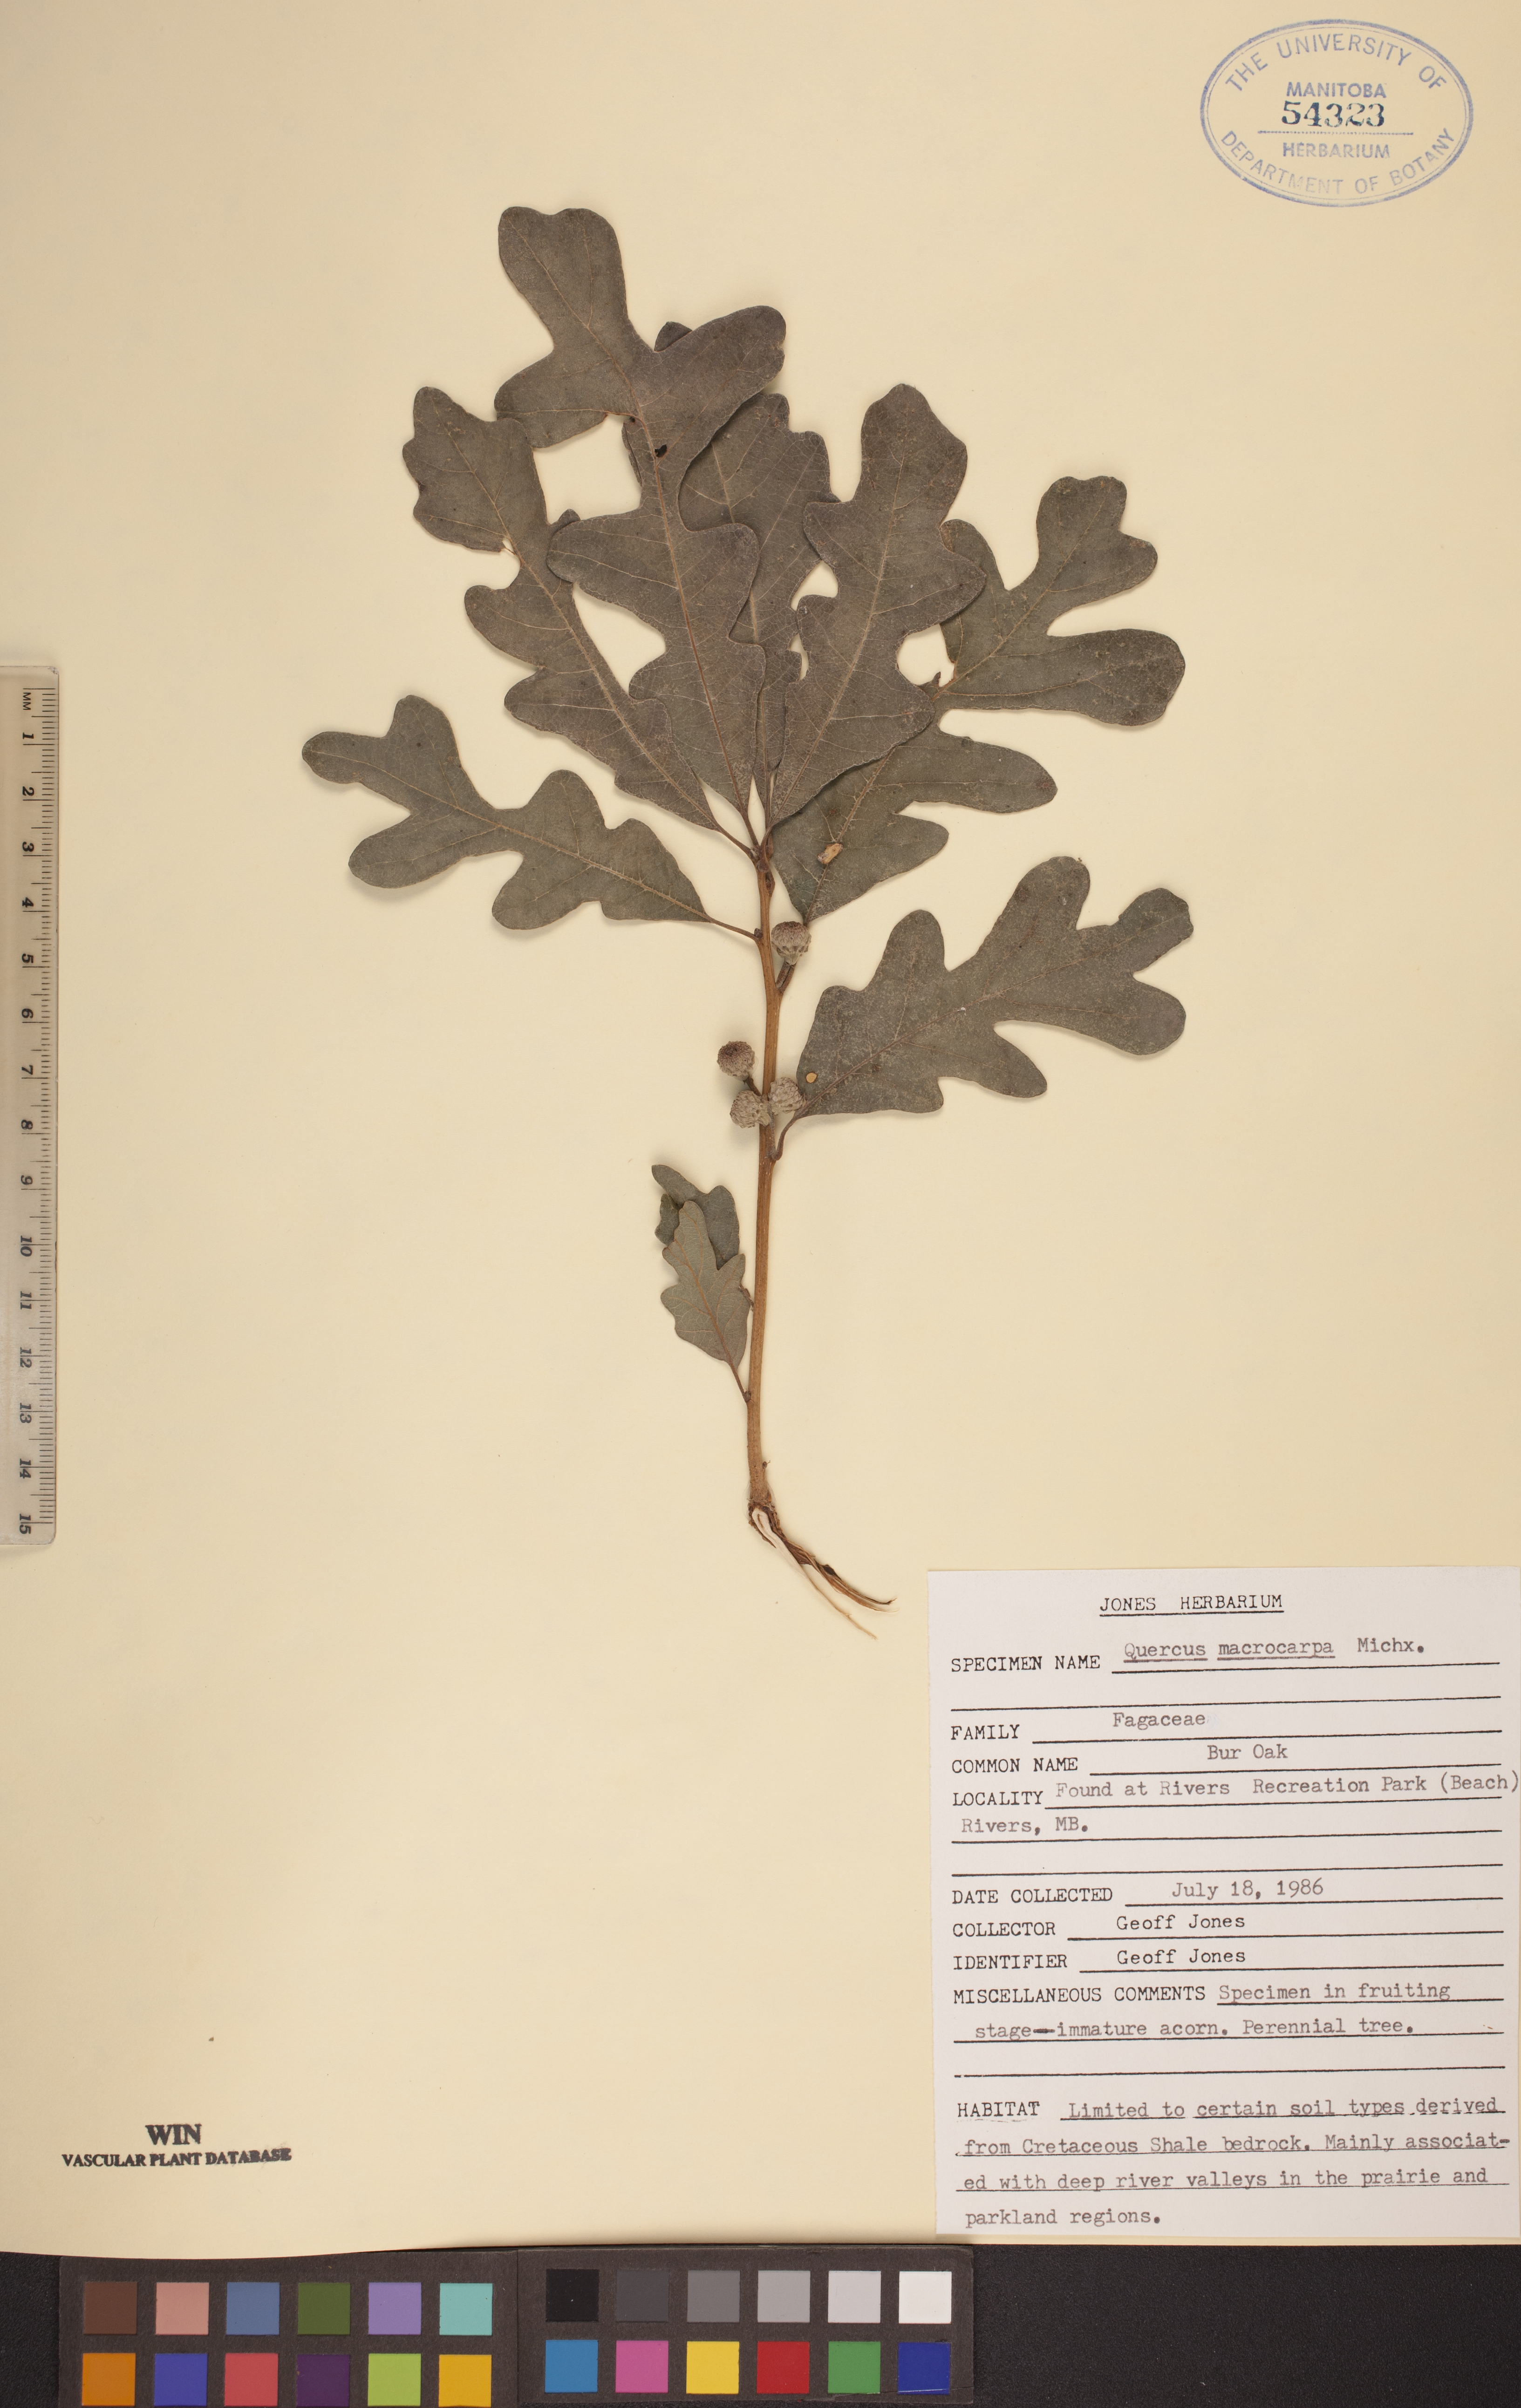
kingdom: Plantae
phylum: Tracheophyta
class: Magnoliopsida
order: Fagales
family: Fagaceae
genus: Quercus
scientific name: Quercus macrocarpa
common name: Bur oak
